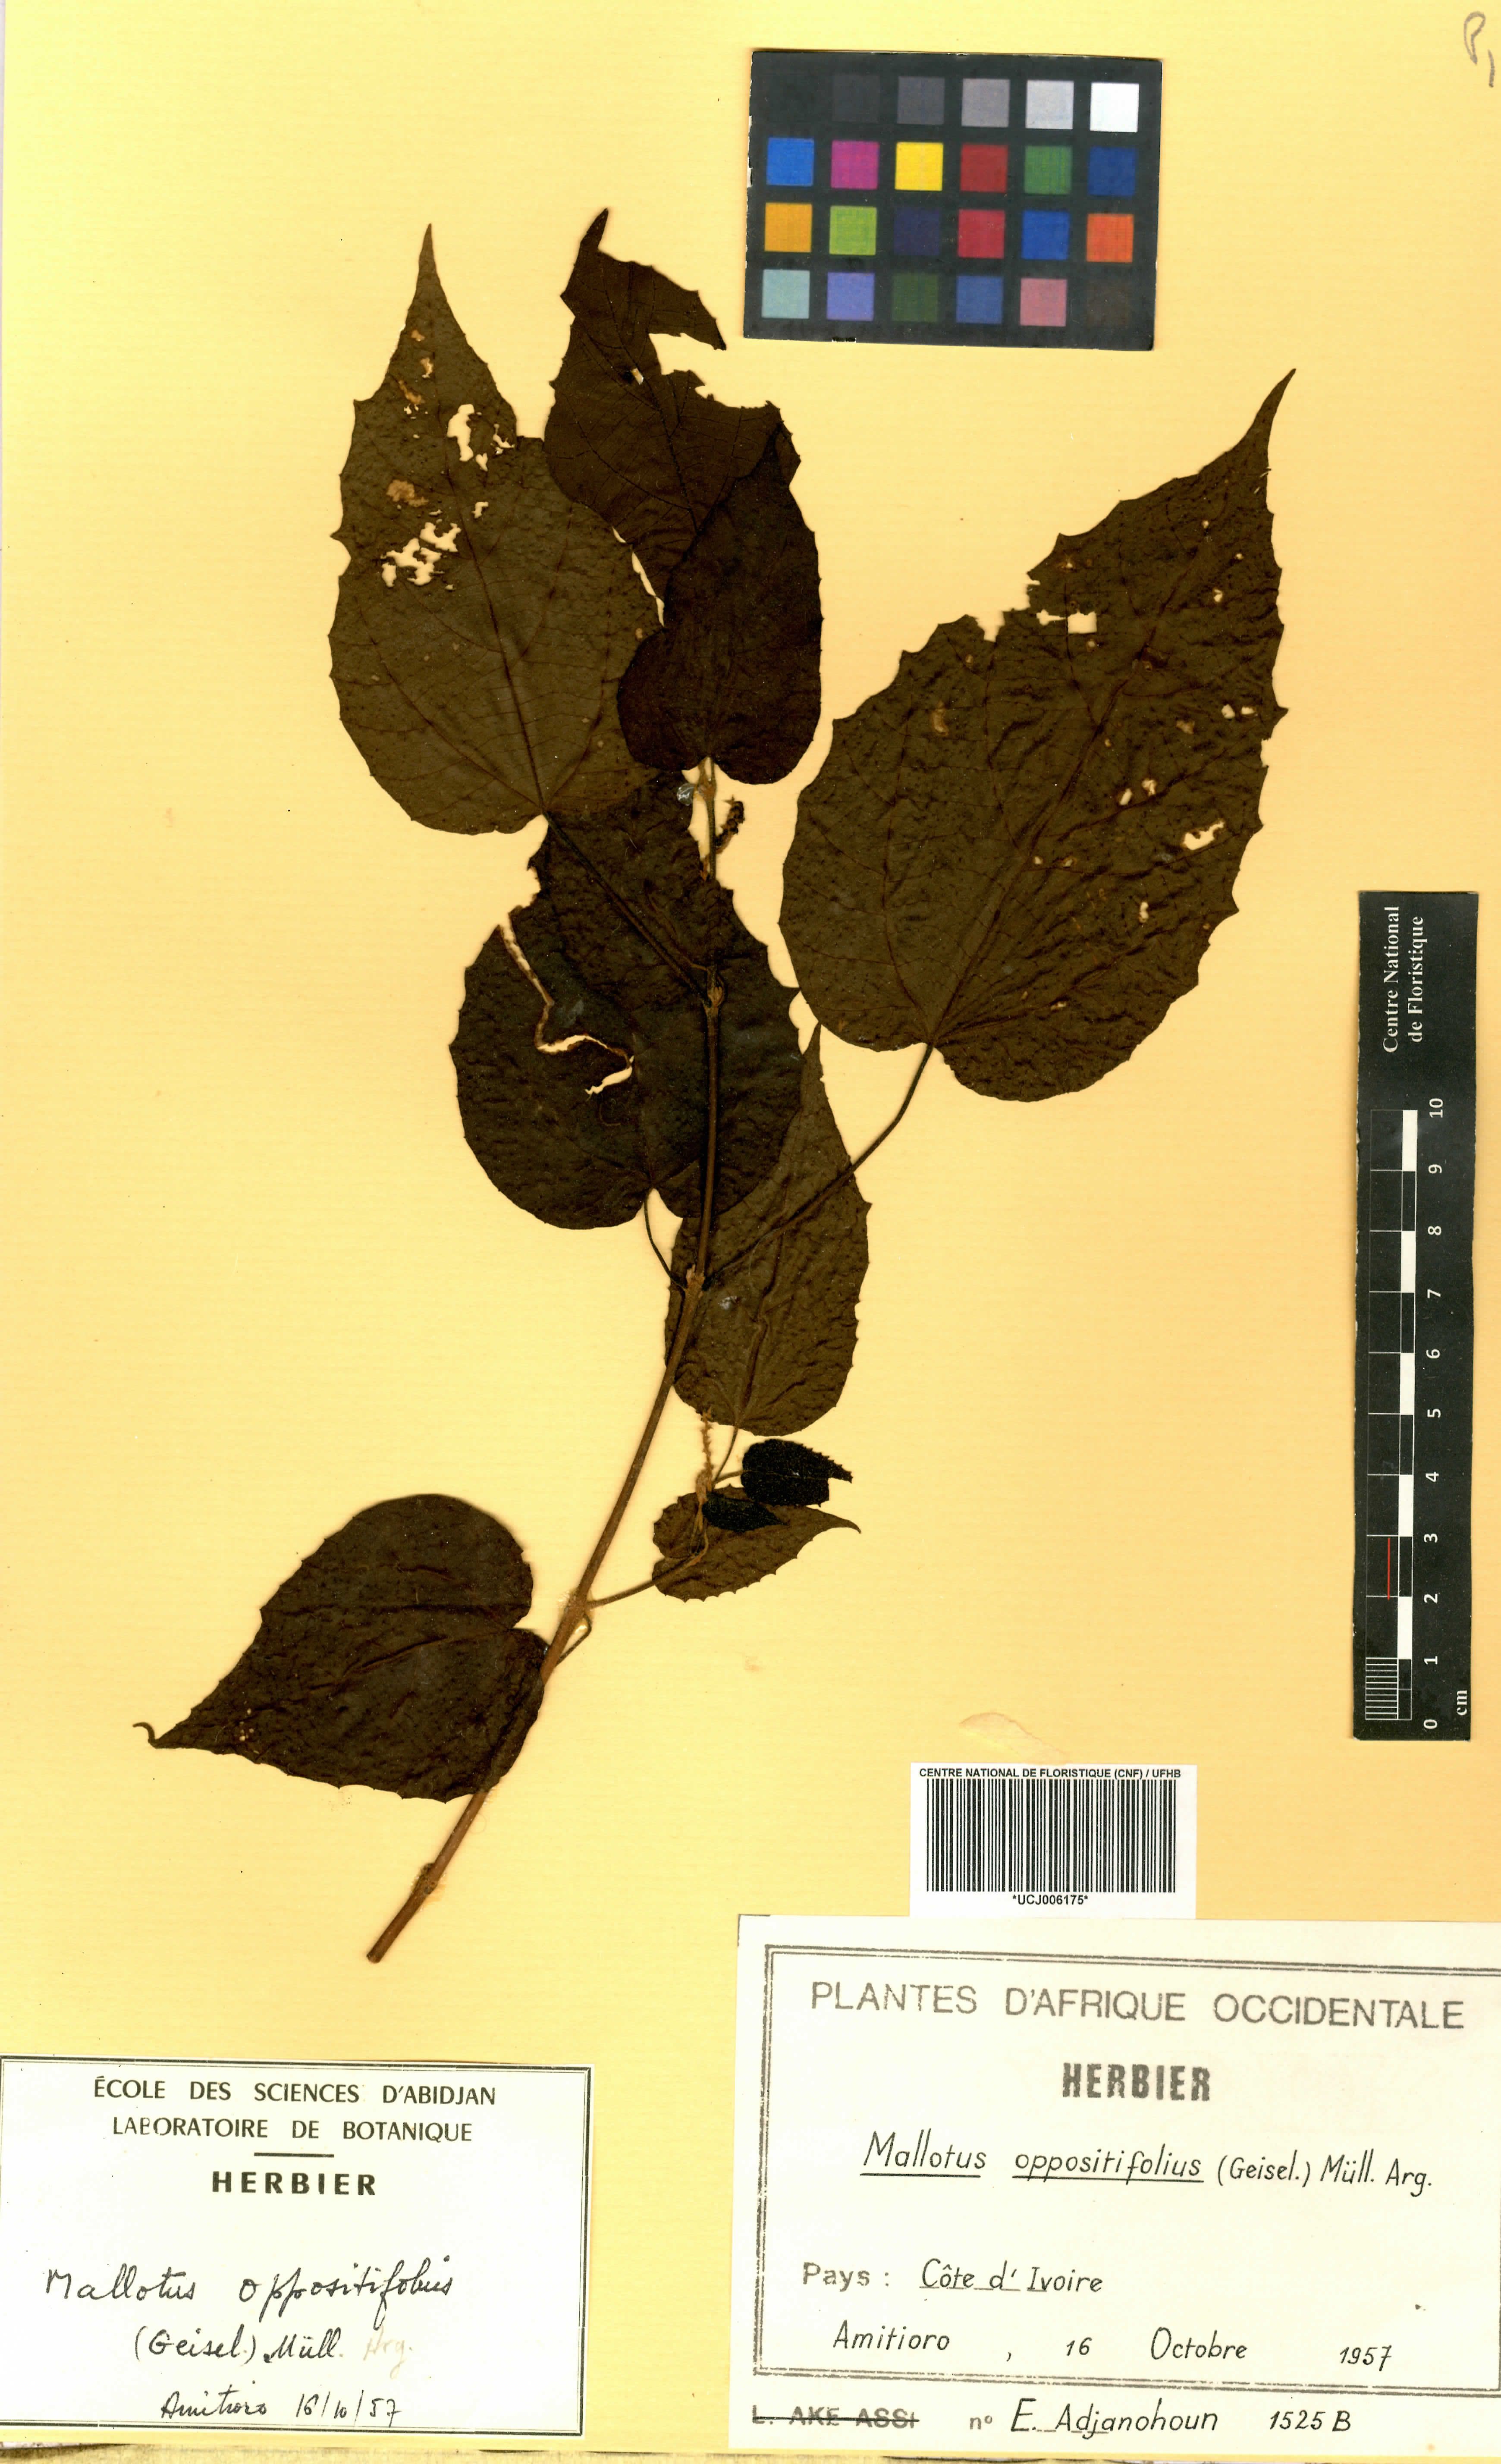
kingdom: Plantae
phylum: Tracheophyta
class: Magnoliopsida
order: Malpighiales
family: Euphorbiaceae
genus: Mallotus
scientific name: Mallotus oppositifolius
